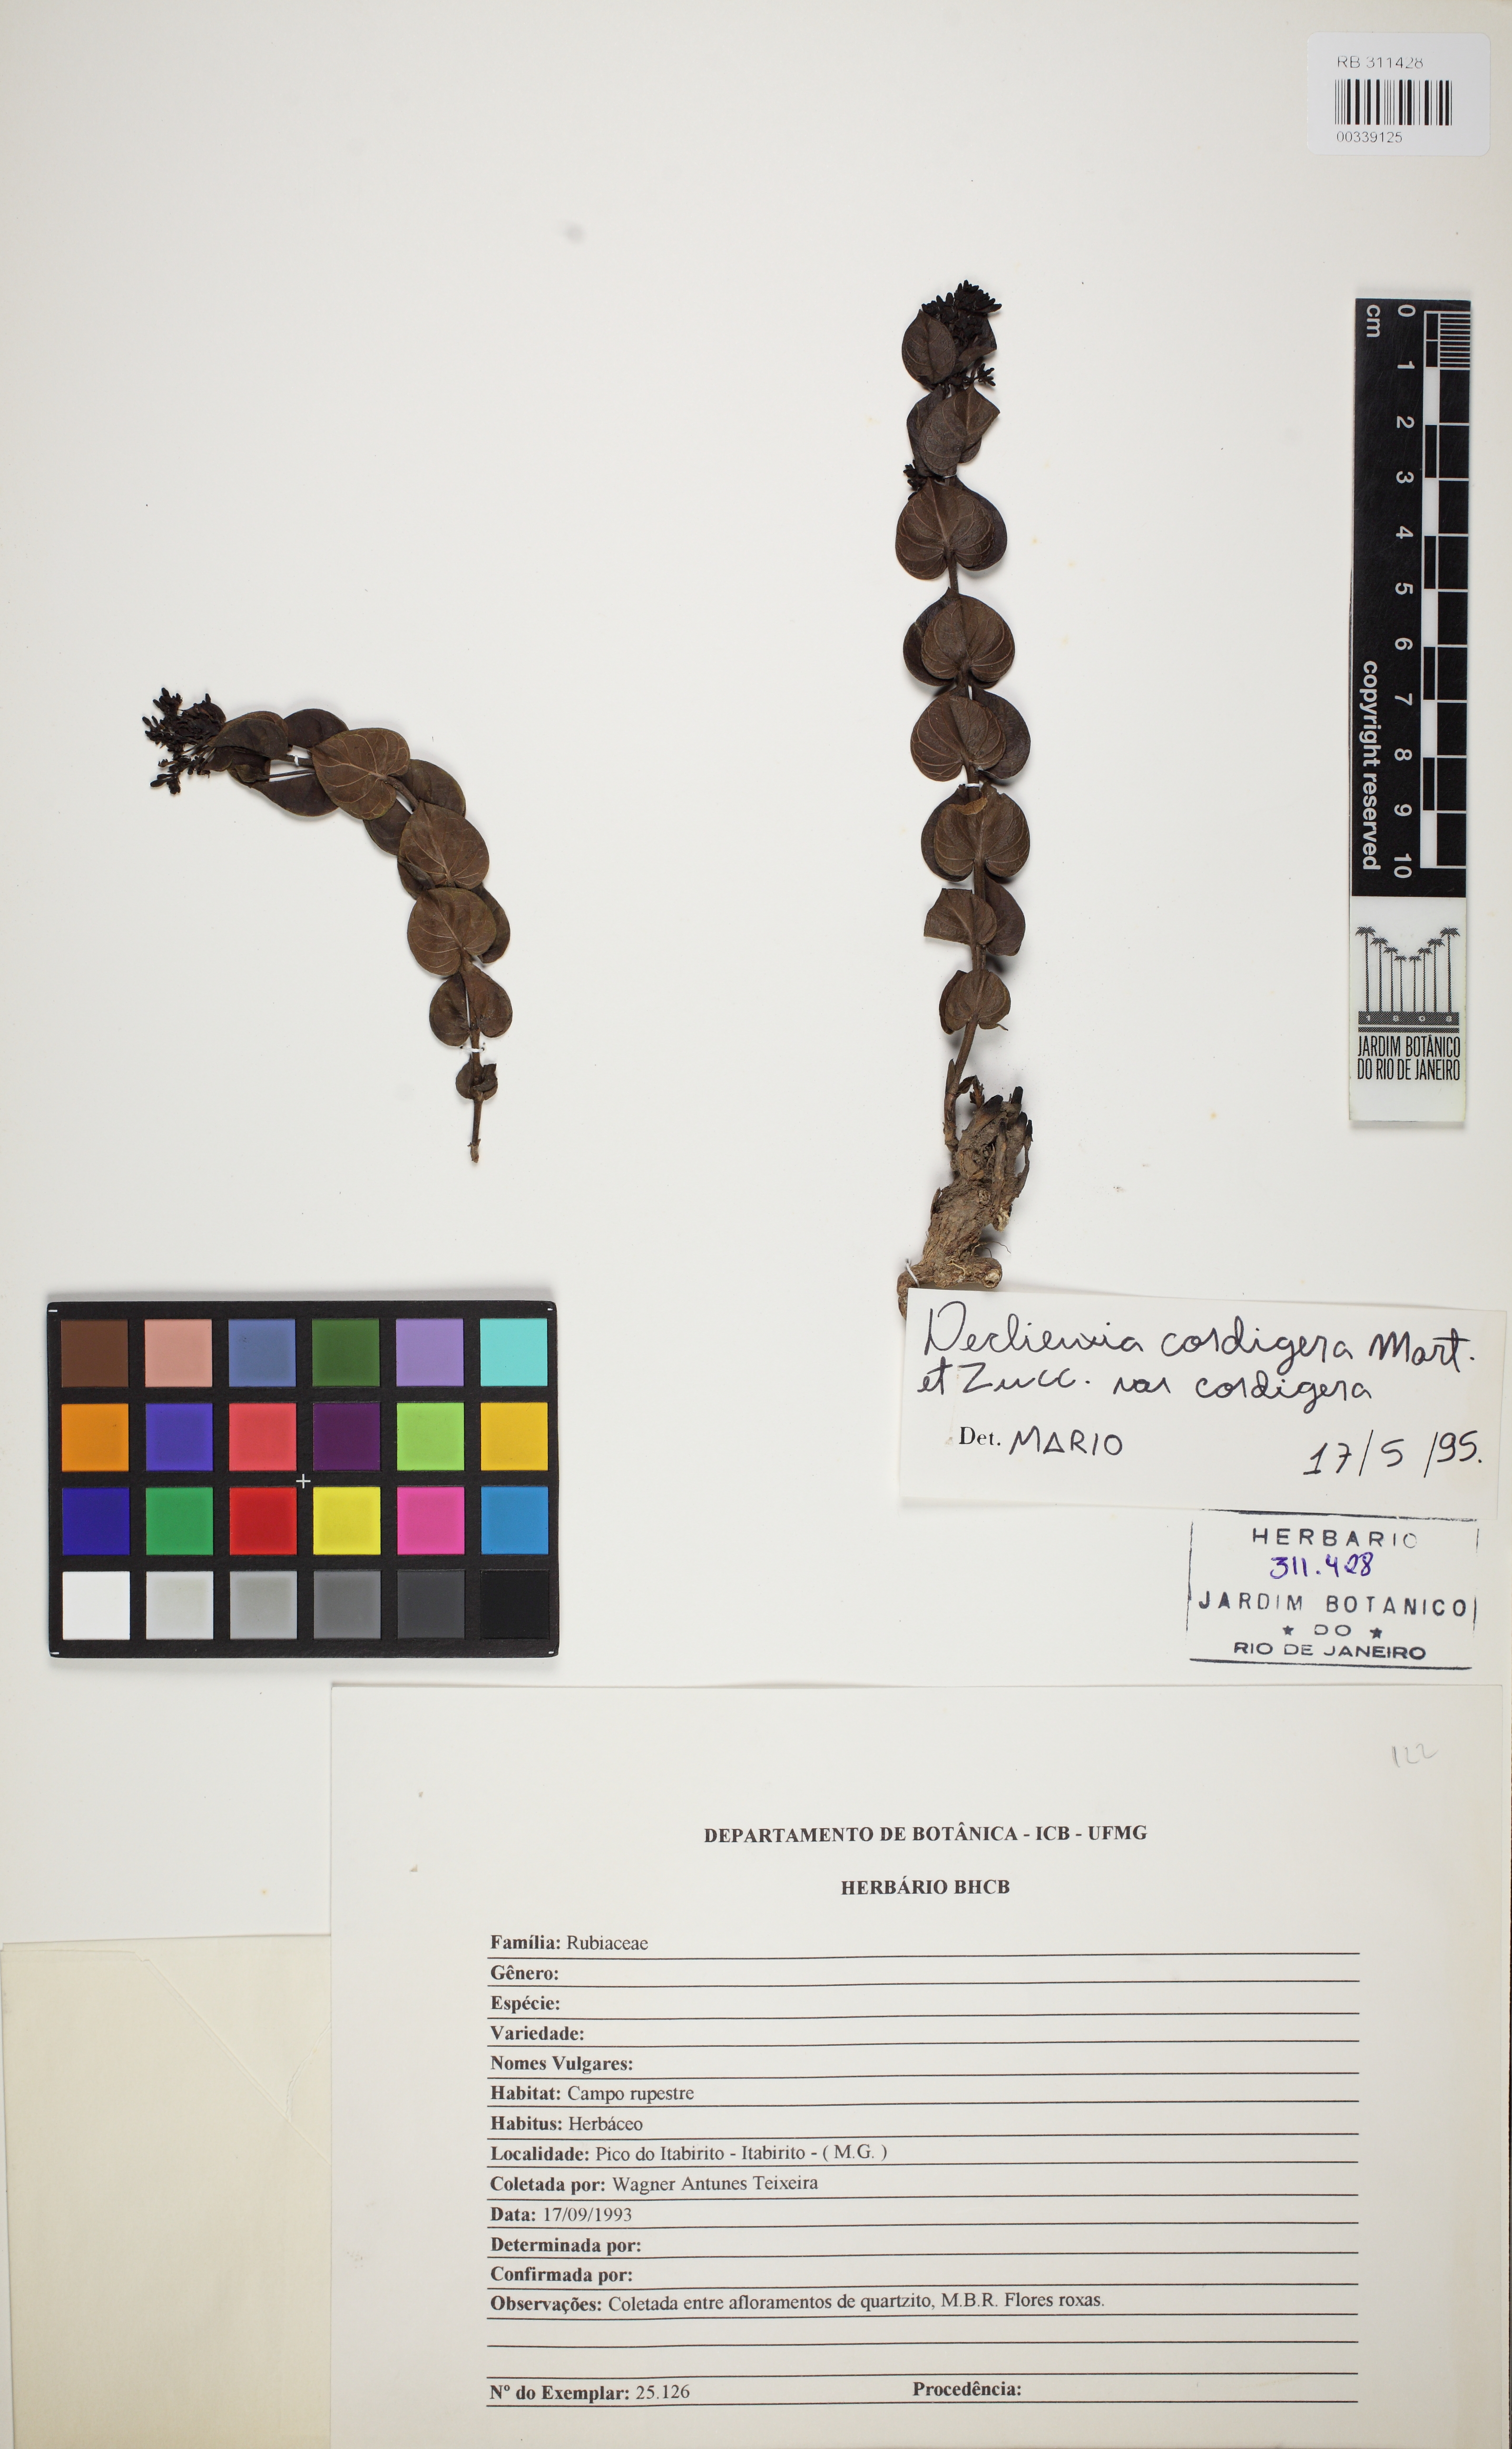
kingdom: Plantae
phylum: Tracheophyta
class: Magnoliopsida
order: Gentianales
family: Rubiaceae
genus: Declieuxia
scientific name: Declieuxia cordigera
